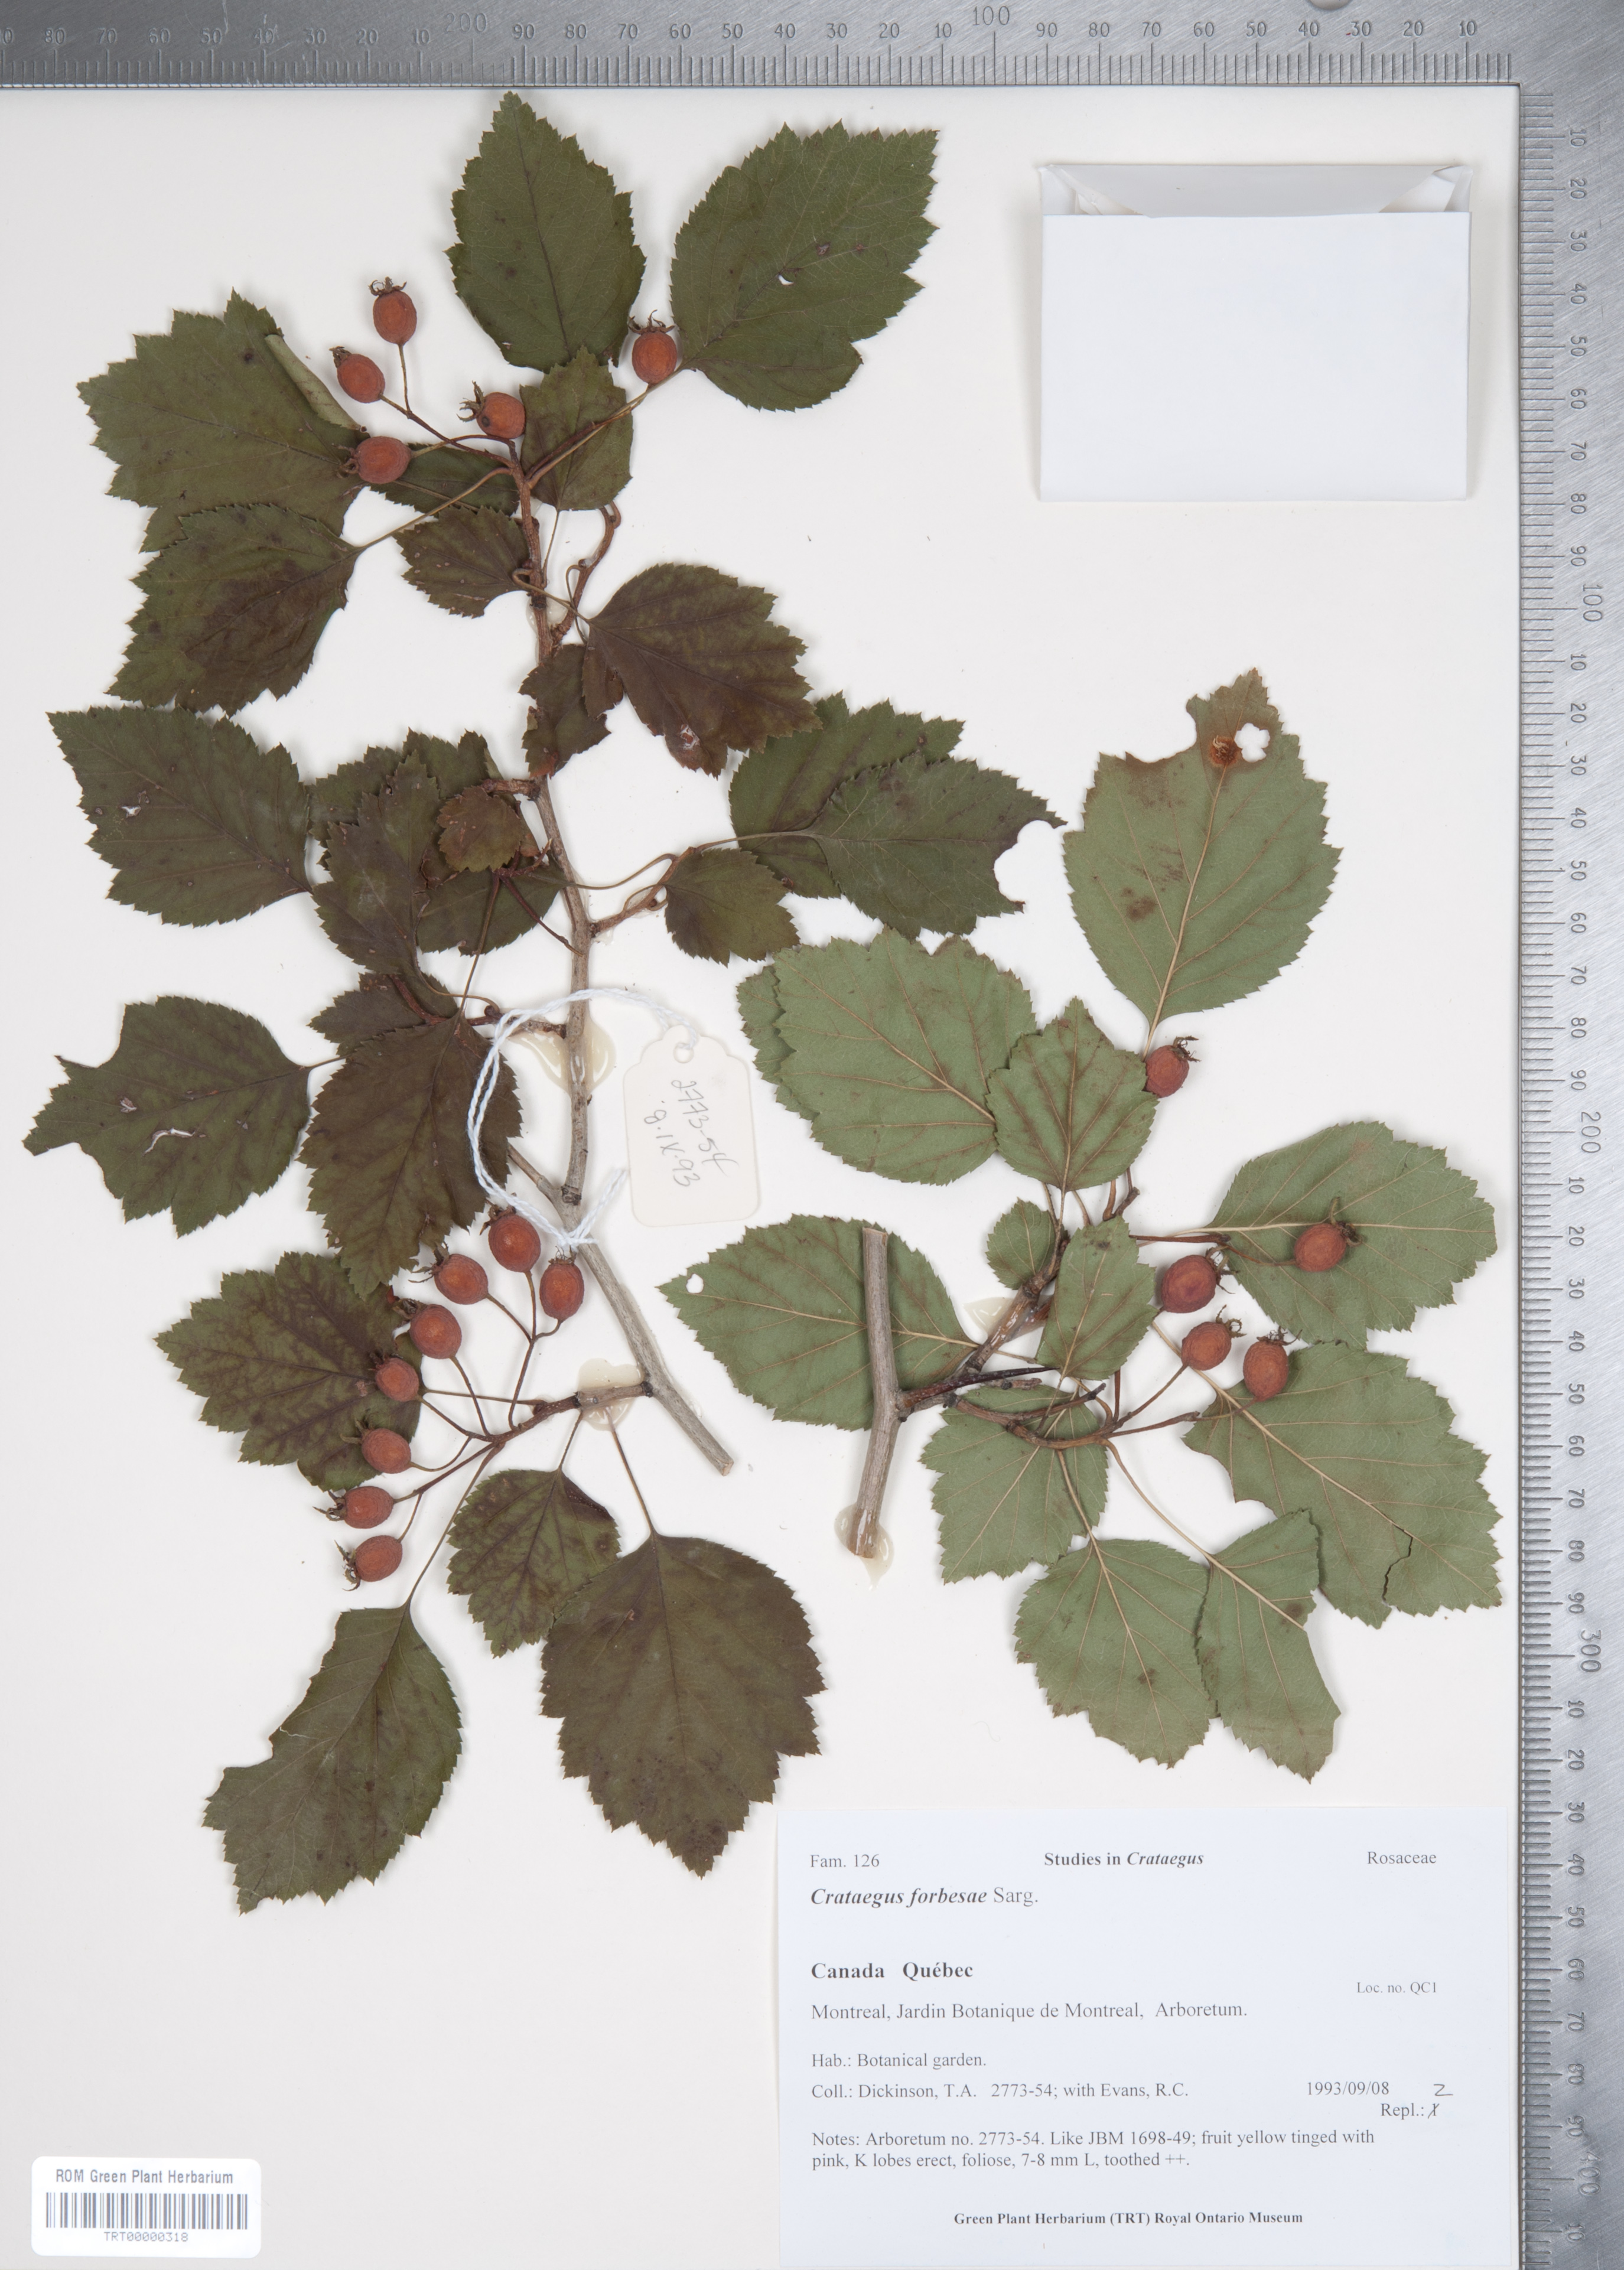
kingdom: Plantae
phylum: Tracheophyta
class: Magnoliopsida
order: Rosales
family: Rosaceae
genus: Crataegus
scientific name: Crataegus forbesae
